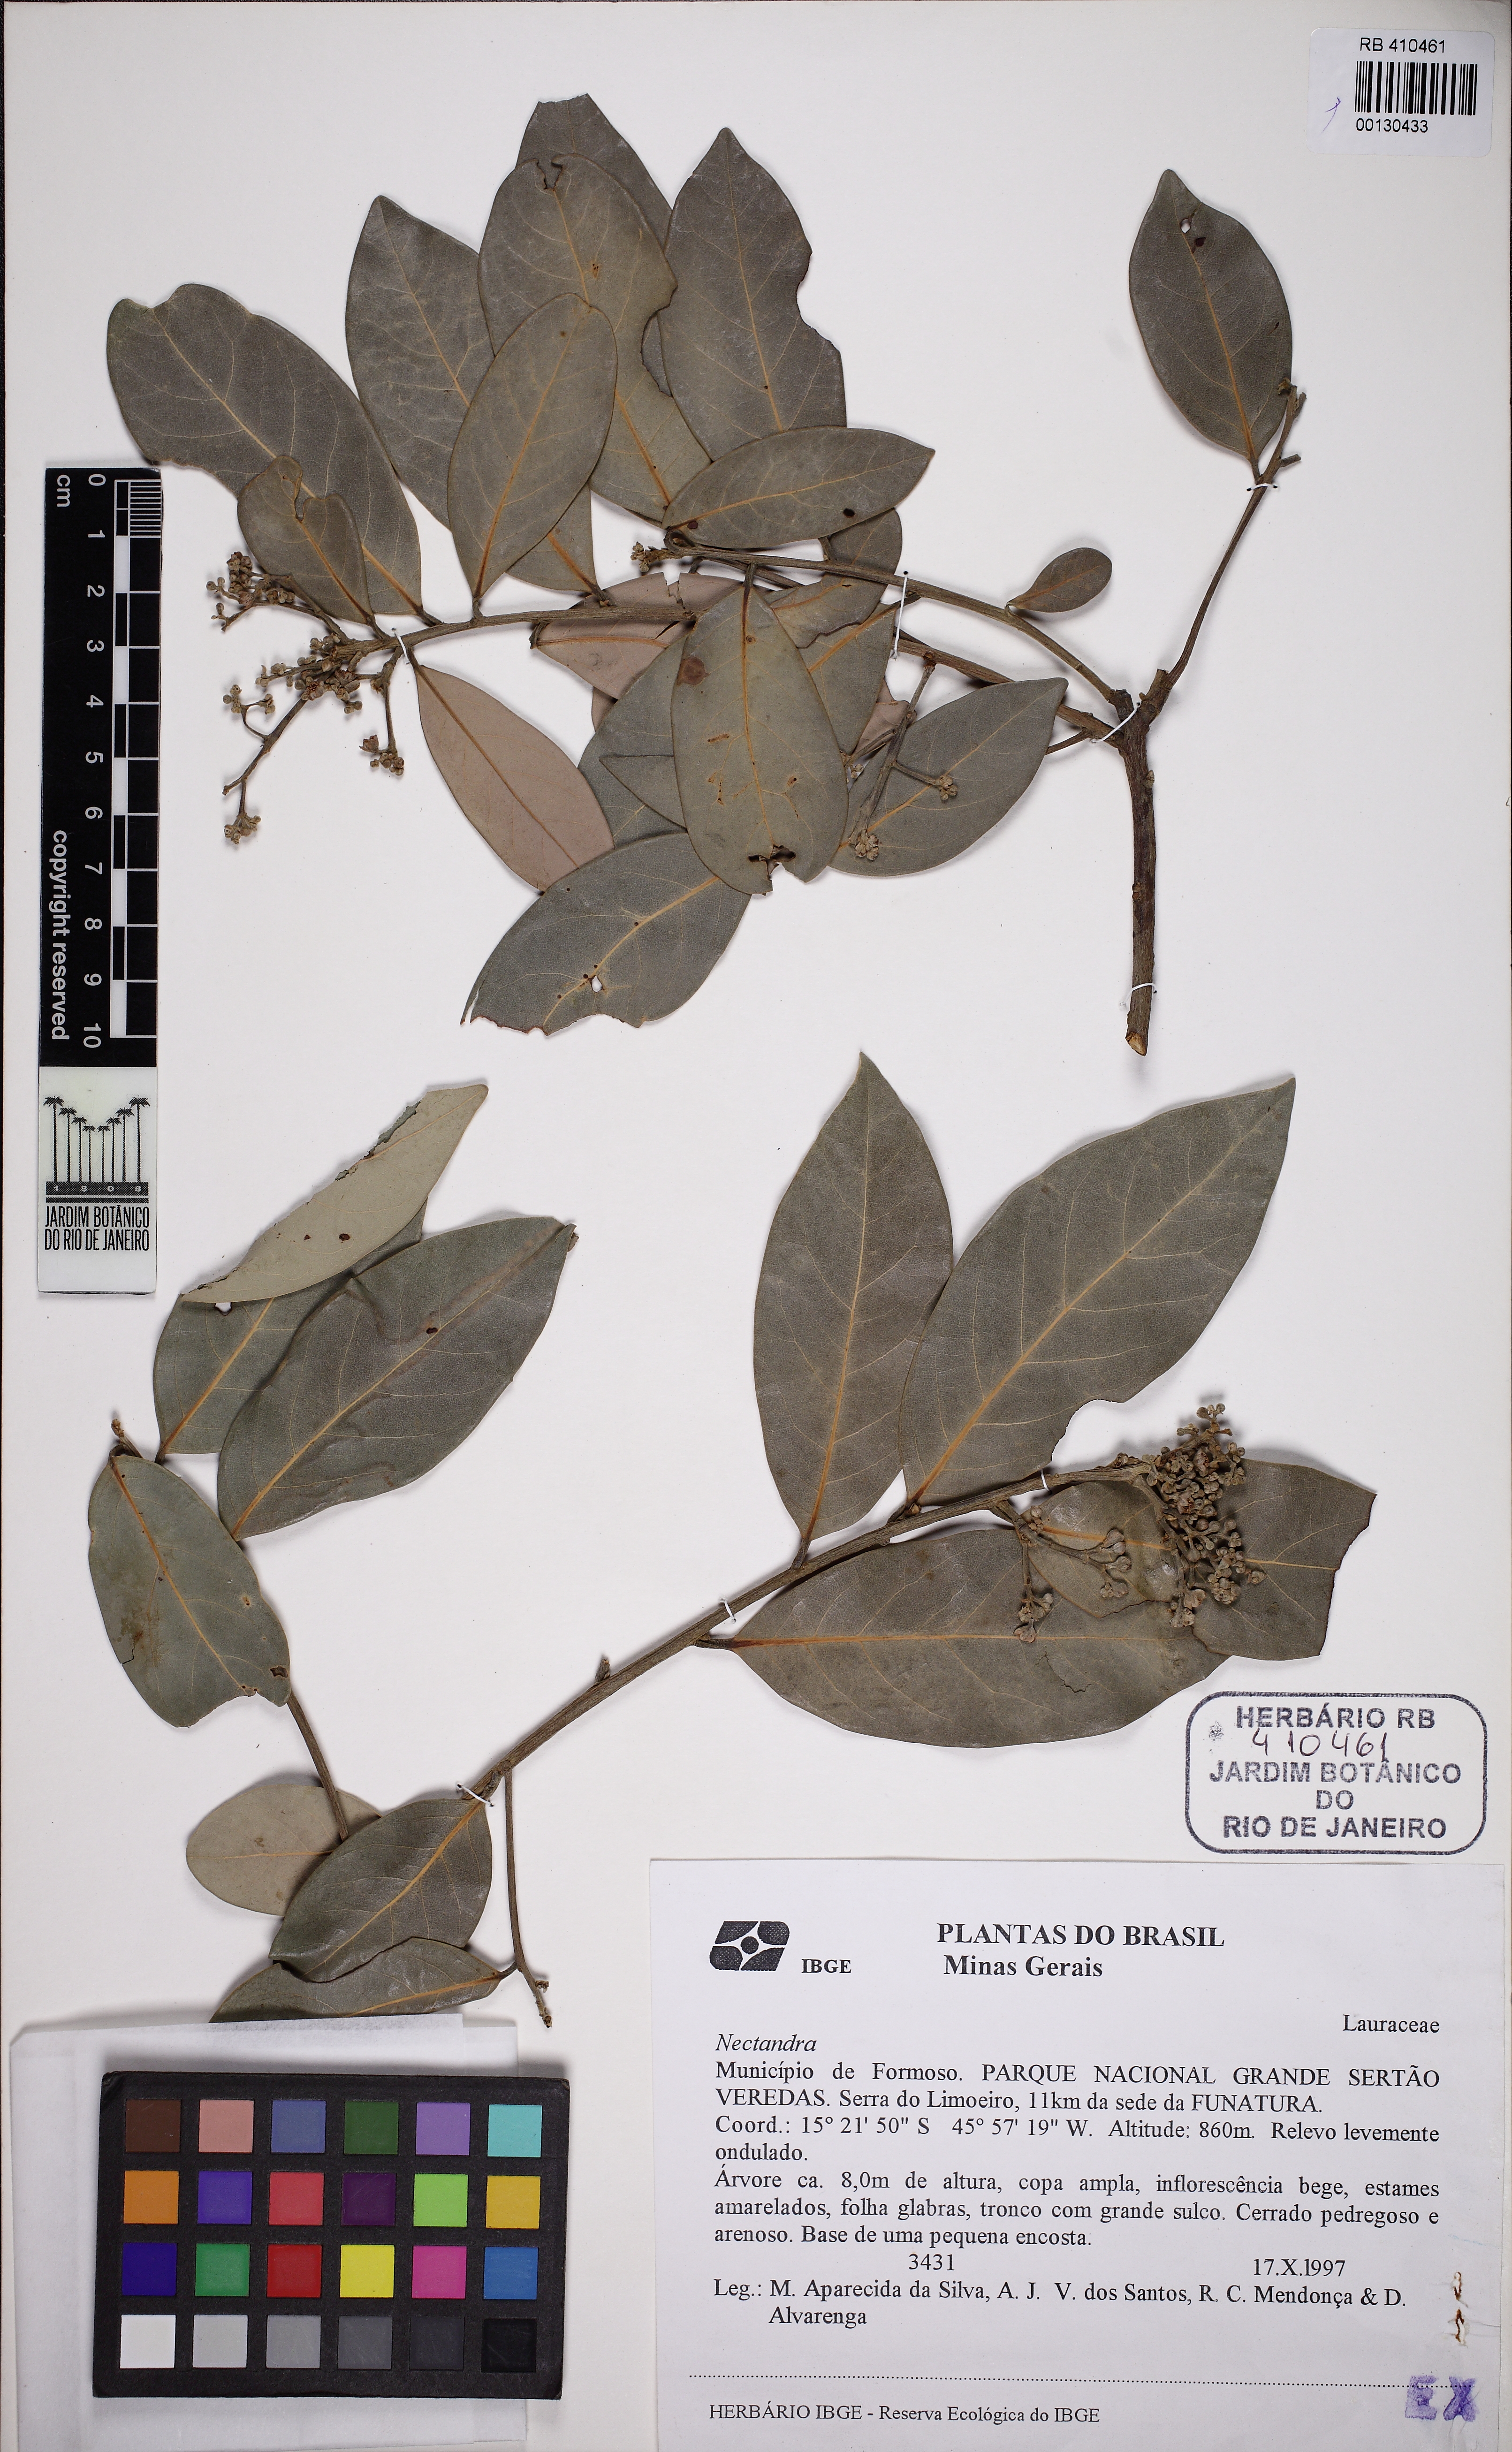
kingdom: Plantae
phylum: Tracheophyta
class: Magnoliopsida
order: Laurales
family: Lauraceae
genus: Nectandra
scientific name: Nectandra
